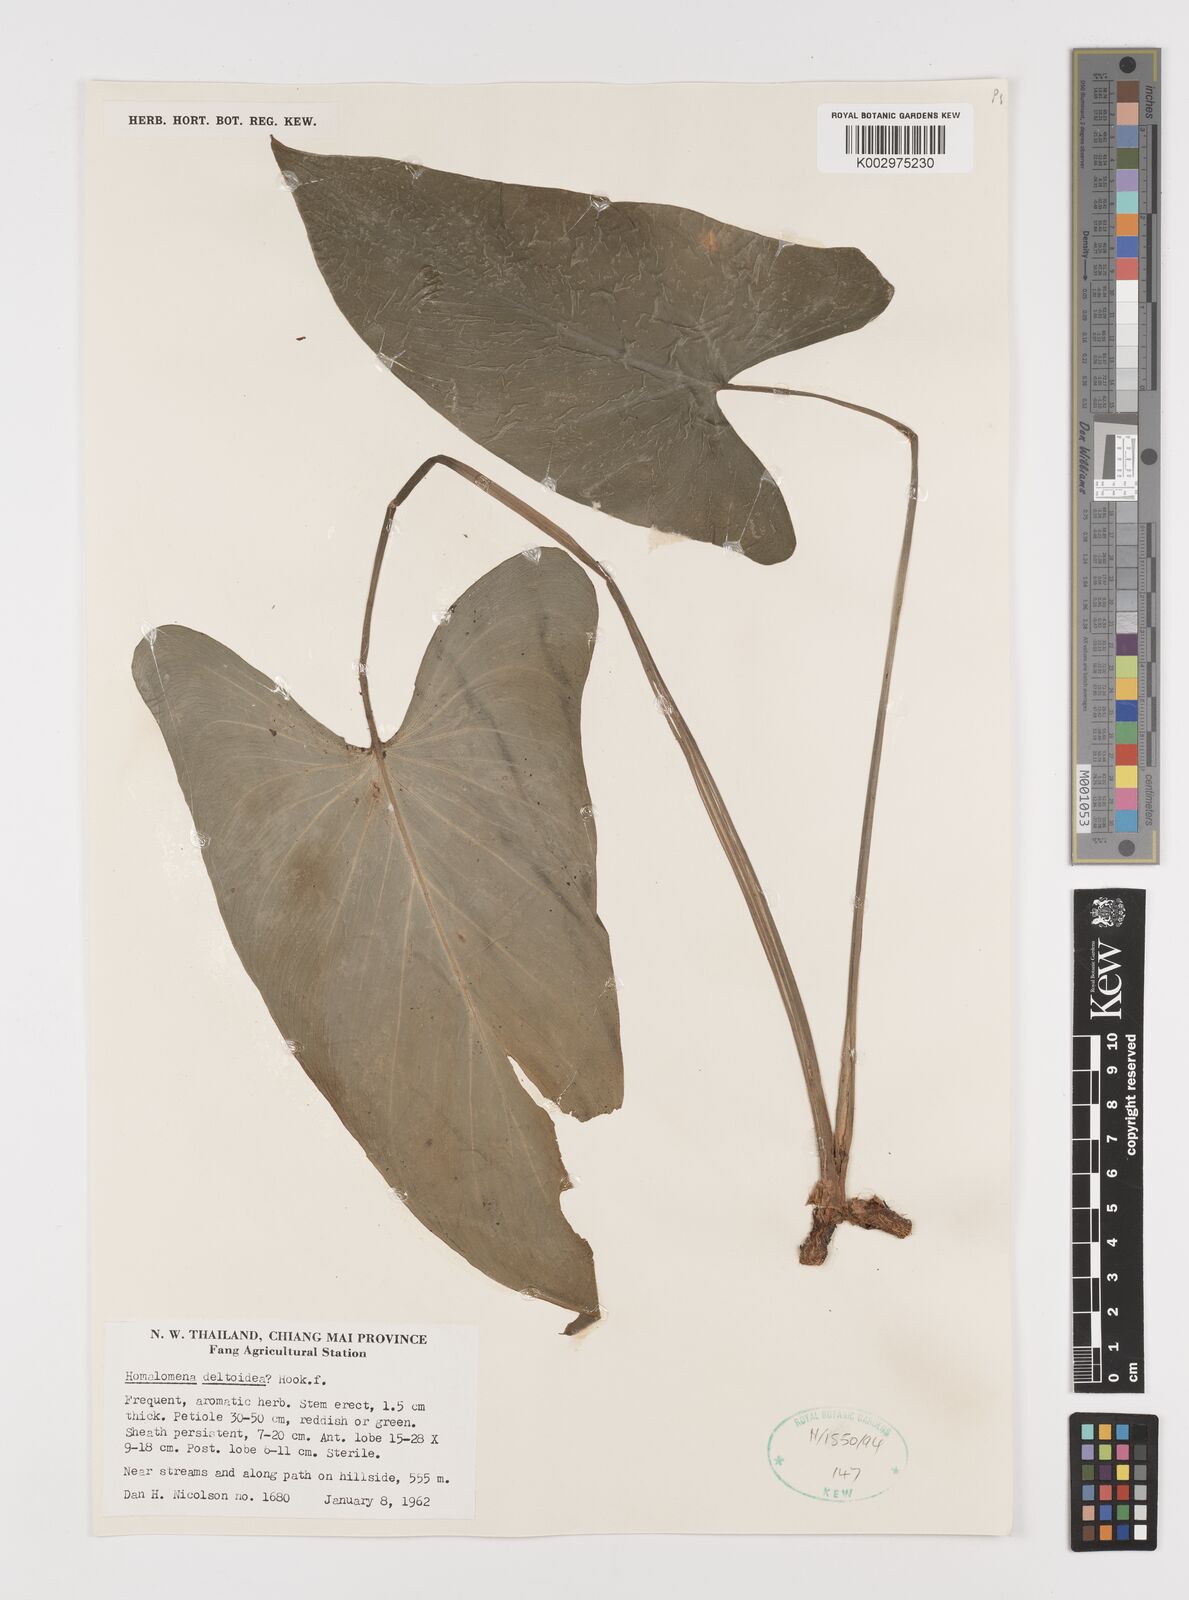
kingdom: Plantae
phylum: Tracheophyta
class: Liliopsida
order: Alismatales
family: Araceae
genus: Homalomena
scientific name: Homalomena griffithii
